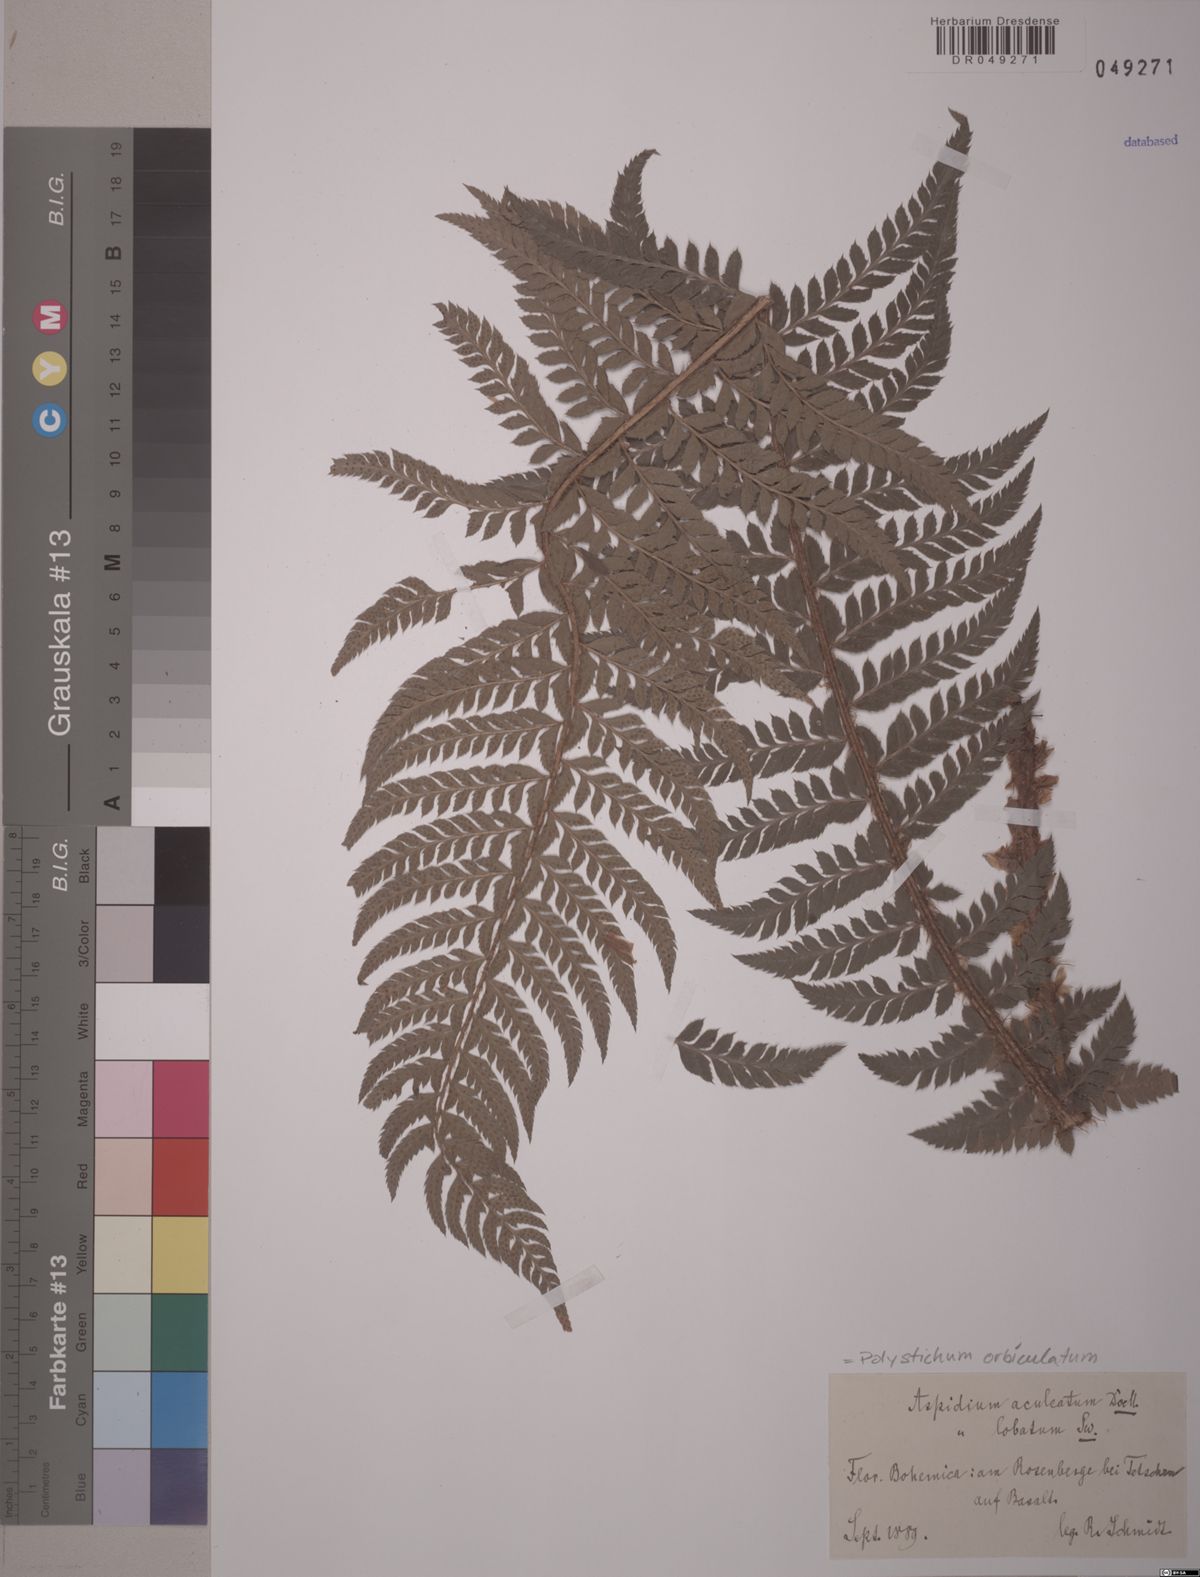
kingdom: Plantae
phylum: Tracheophyta
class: Polypodiopsida
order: Polypodiales
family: Dryopteridaceae
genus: Polystichum
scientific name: Polystichum aculeatum
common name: Hard shield-fern
